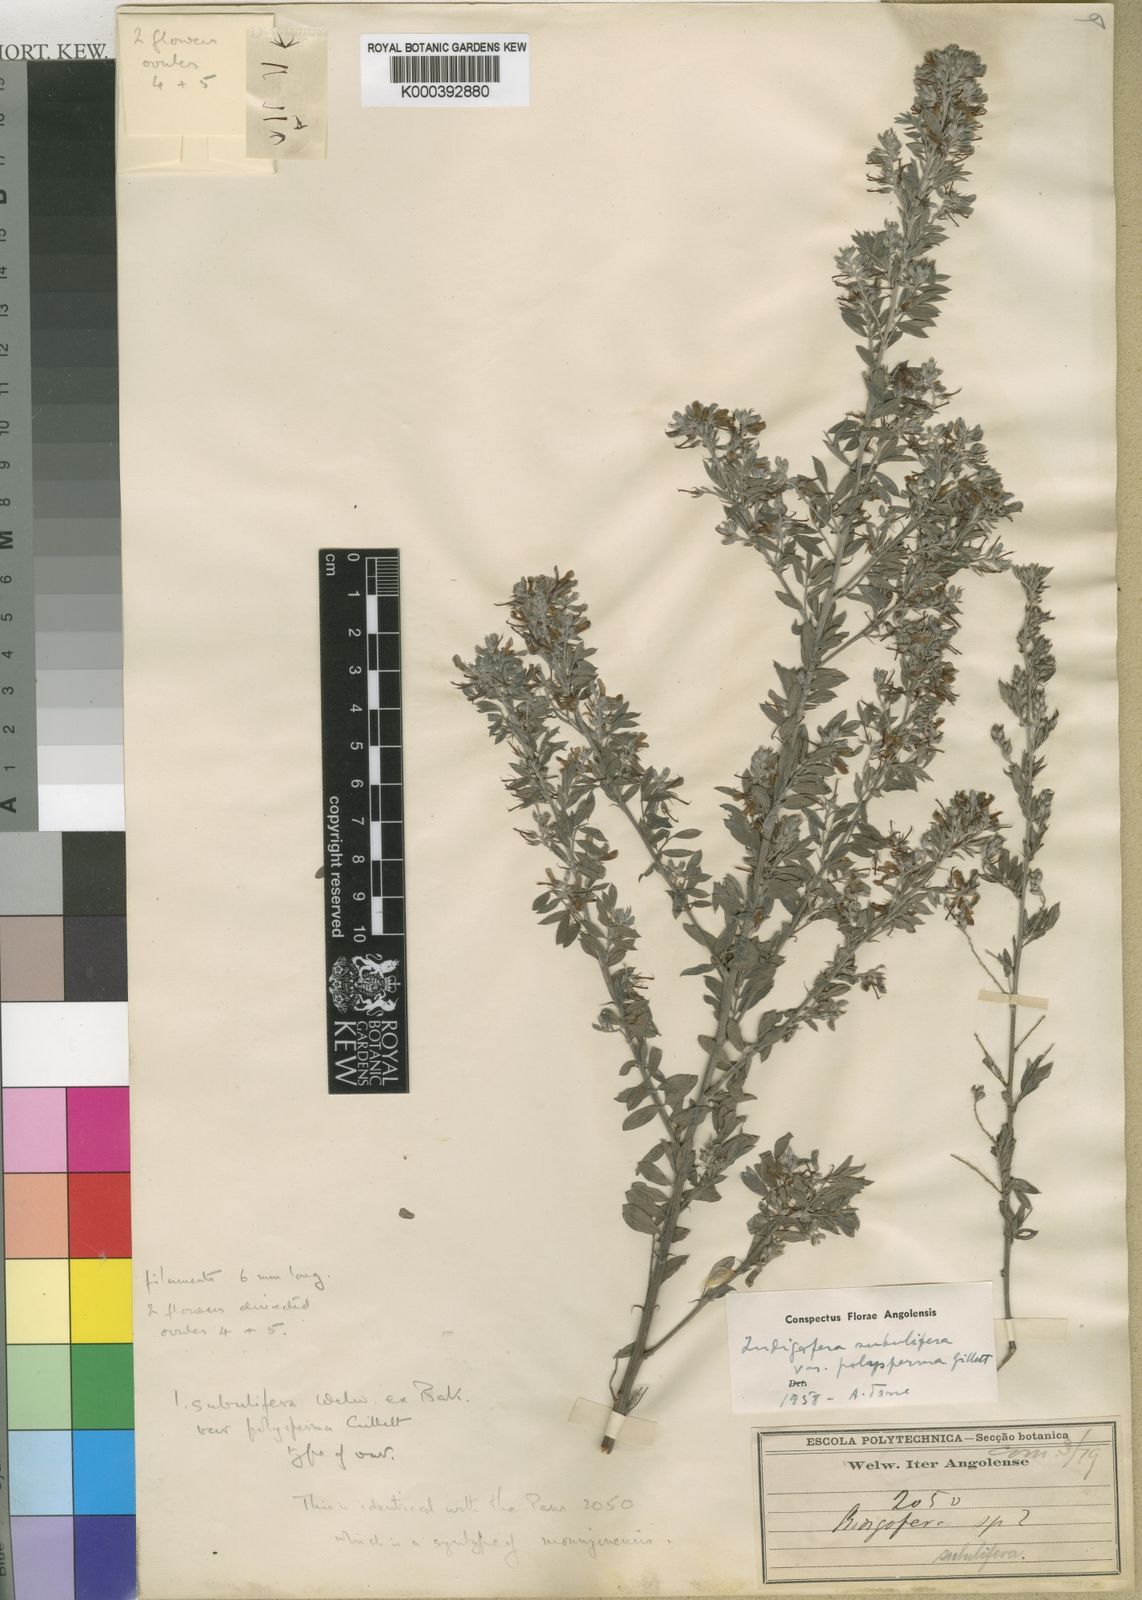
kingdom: Plantae
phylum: Tracheophyta
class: Magnoliopsida
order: Fabales
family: Fabaceae
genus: Indigofera
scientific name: Indigofera subulifera
